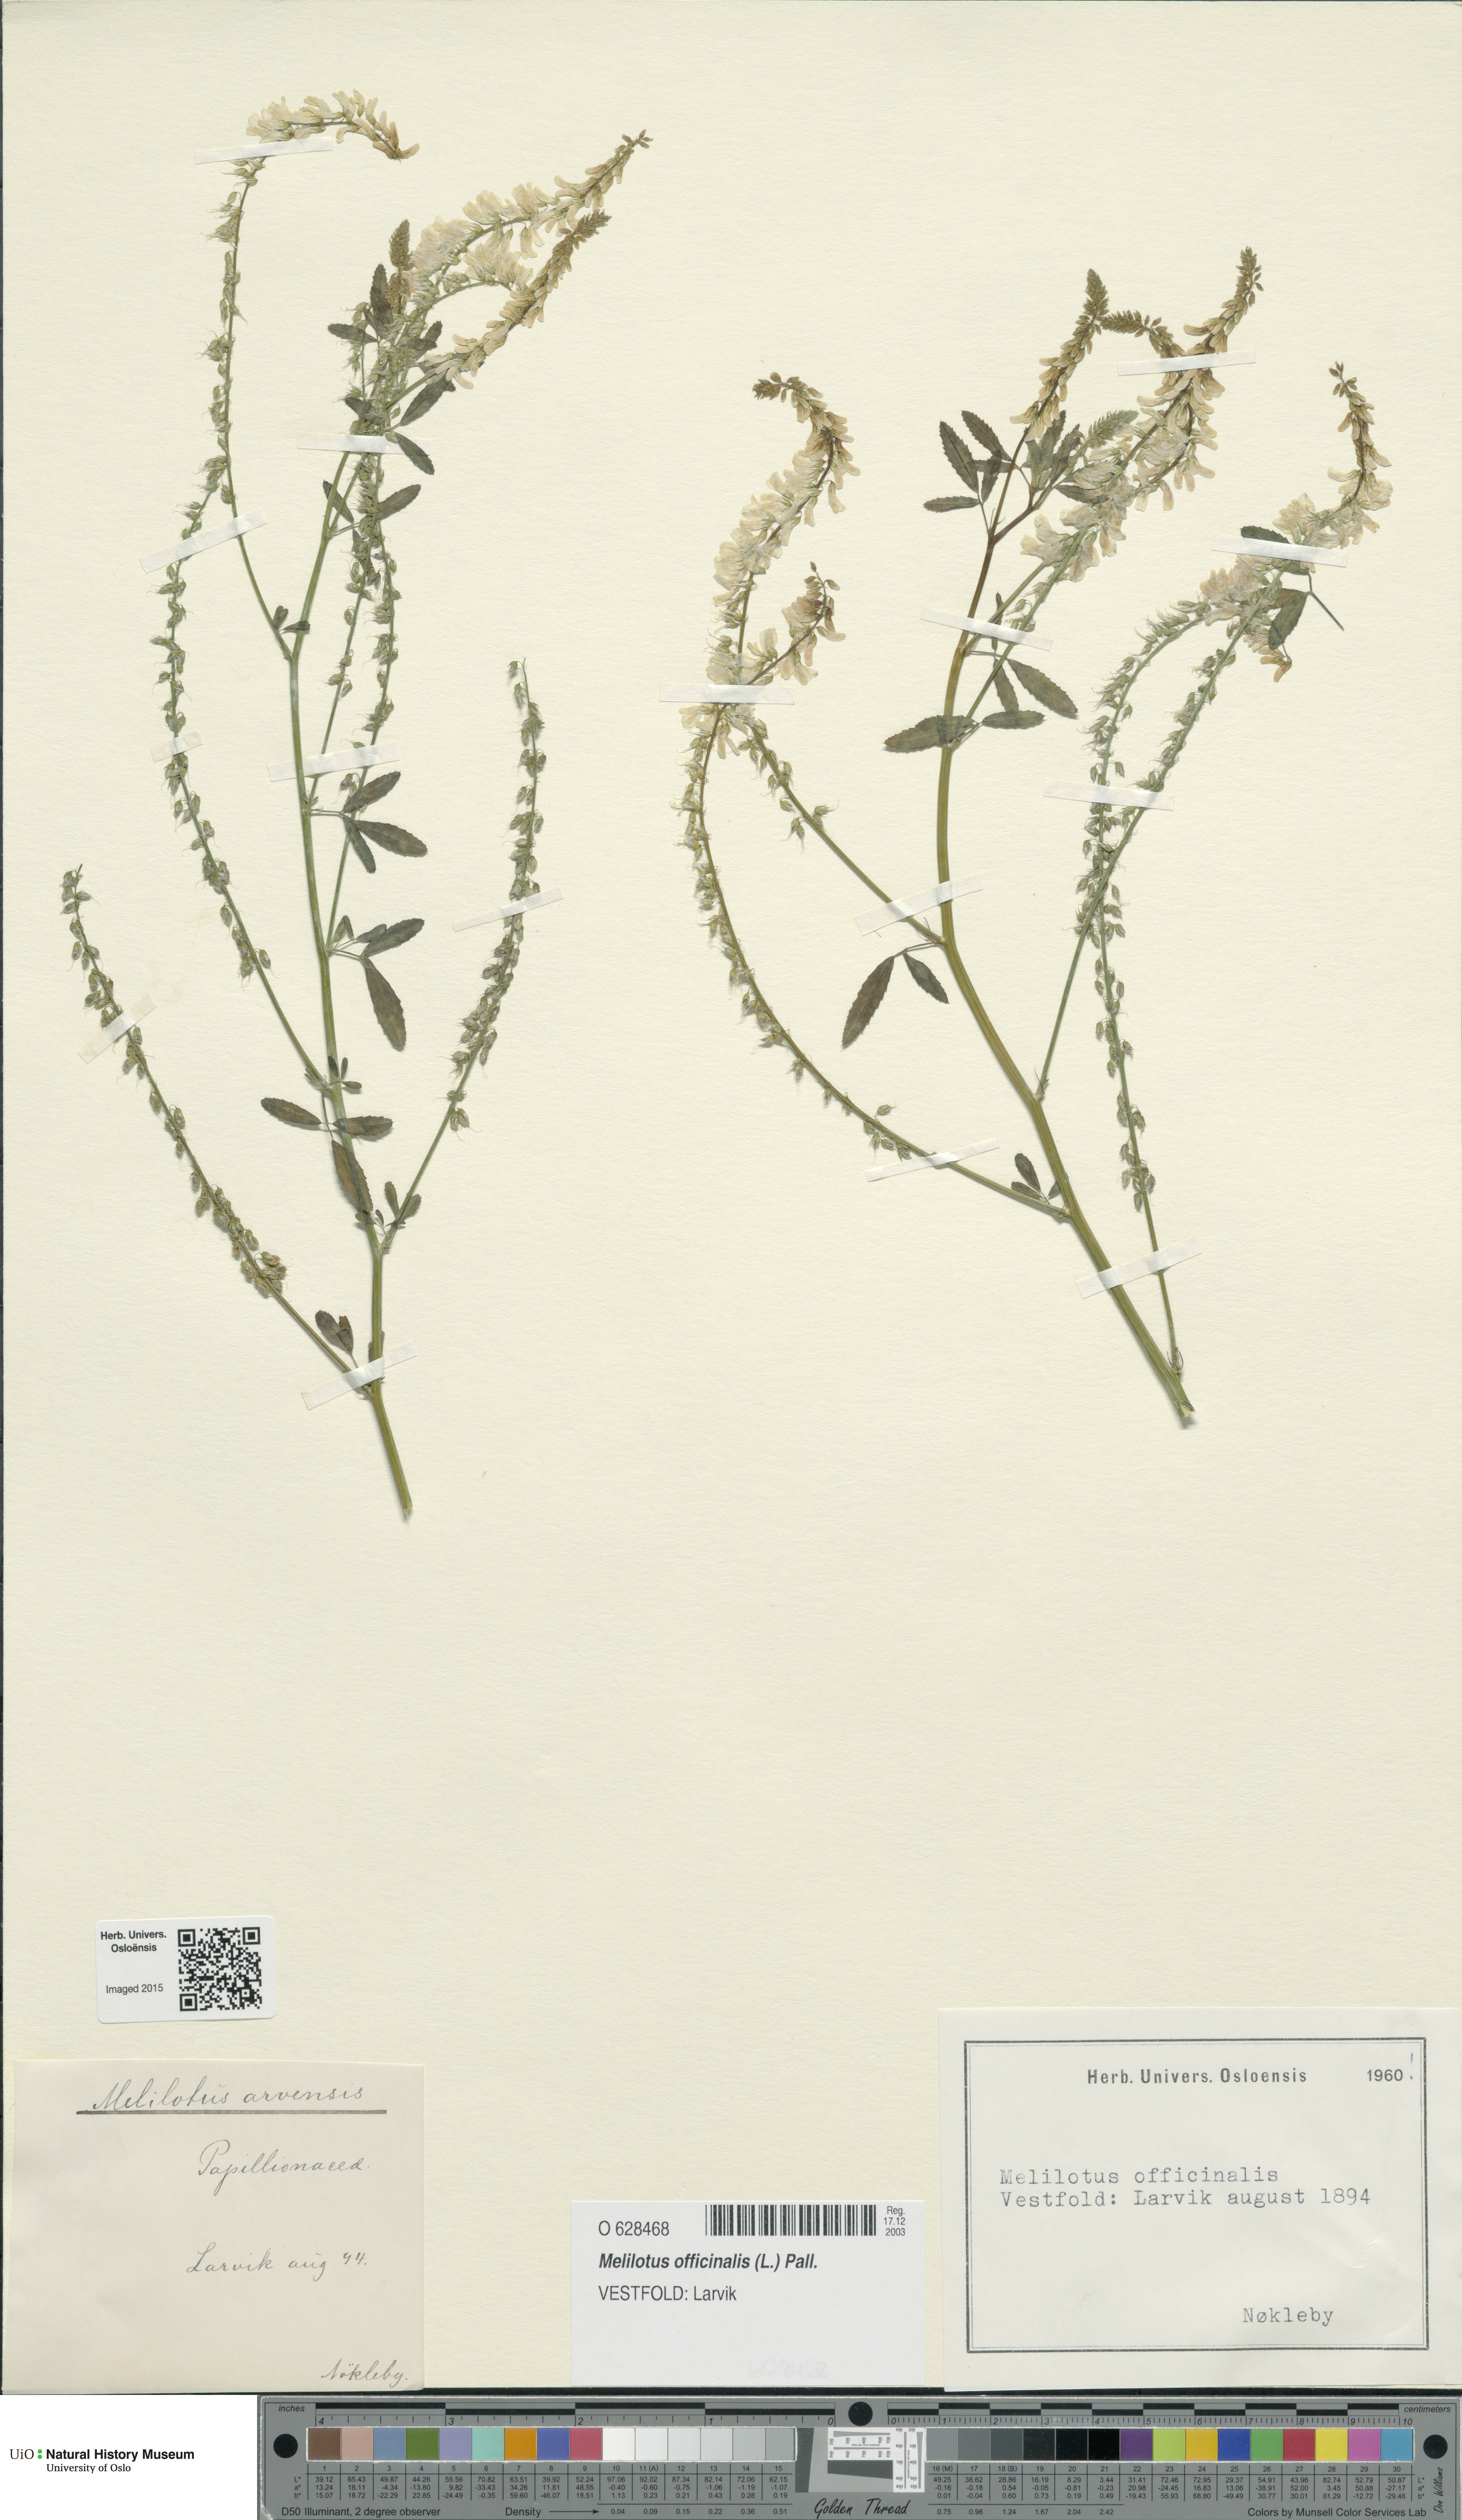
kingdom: Plantae
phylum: Tracheophyta
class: Magnoliopsida
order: Fabales
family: Fabaceae
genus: Melilotus
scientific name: Melilotus officinalis
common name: Sweetclover
